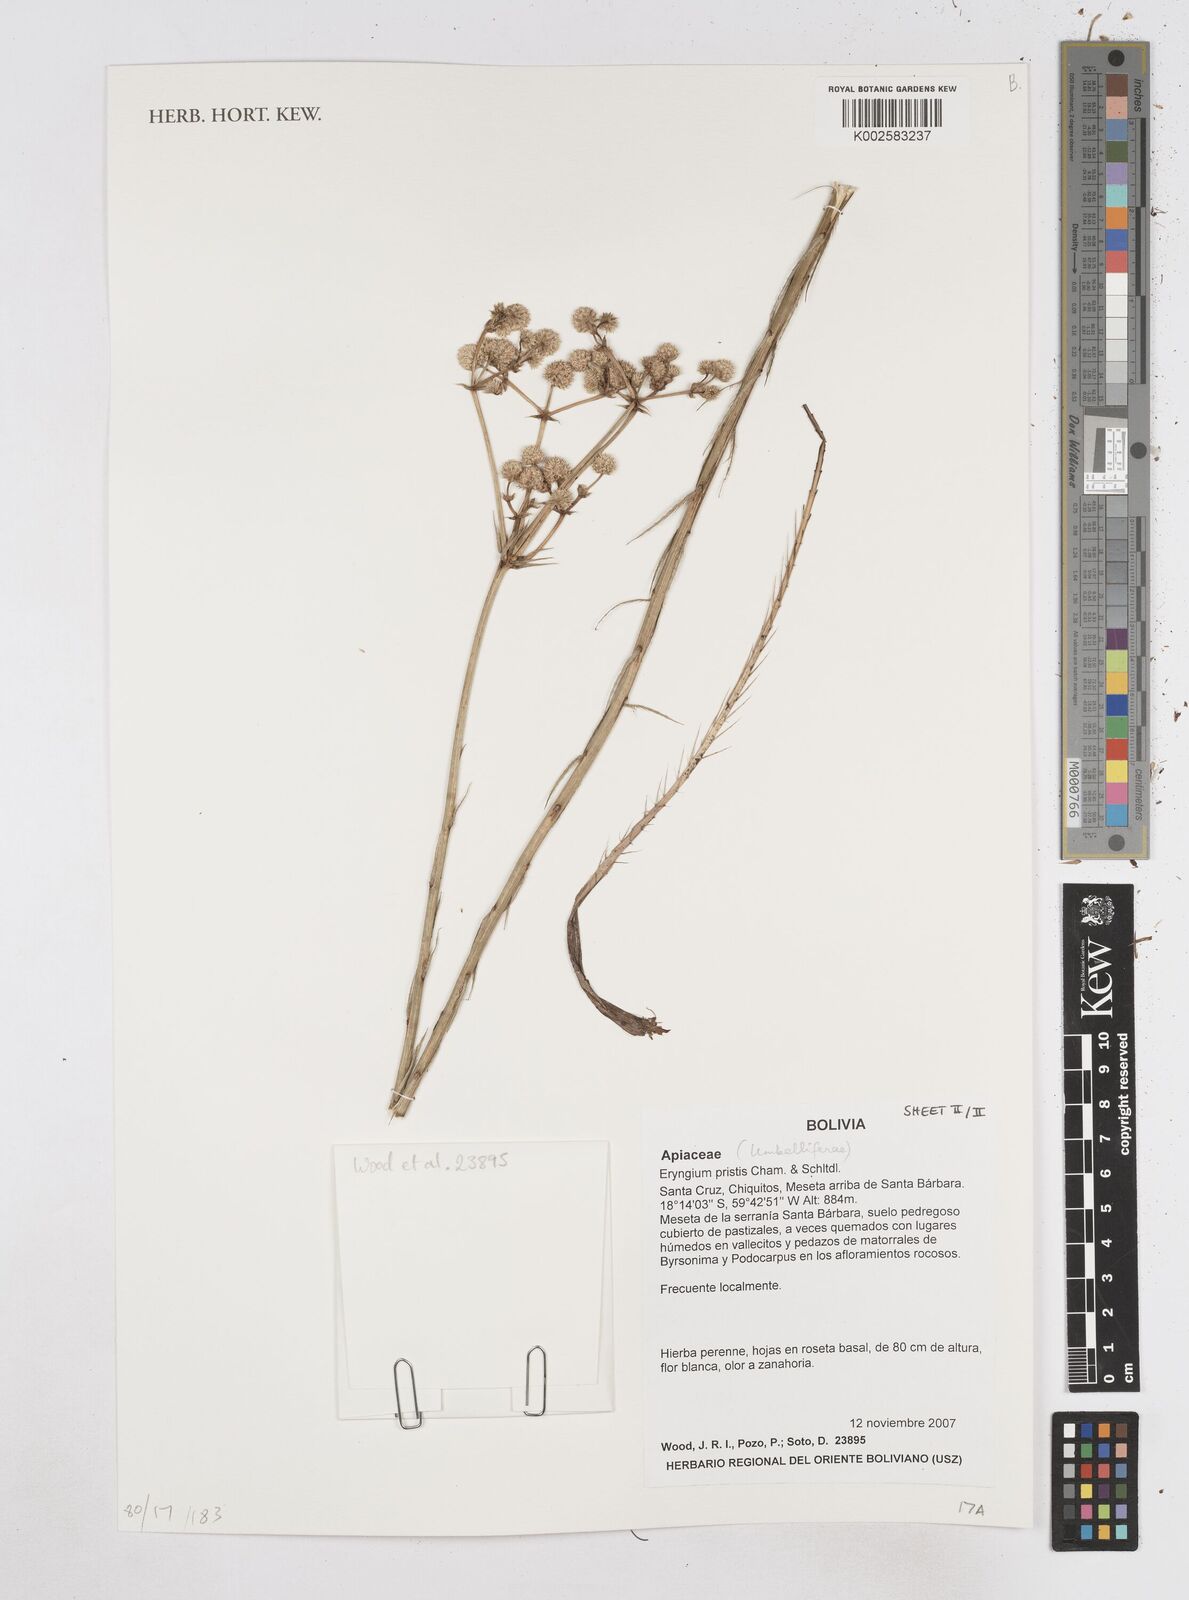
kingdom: Plantae
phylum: Tracheophyta
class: Magnoliopsida
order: Apiales
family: Apiaceae
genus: Eryngium
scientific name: Eryngium pristis
